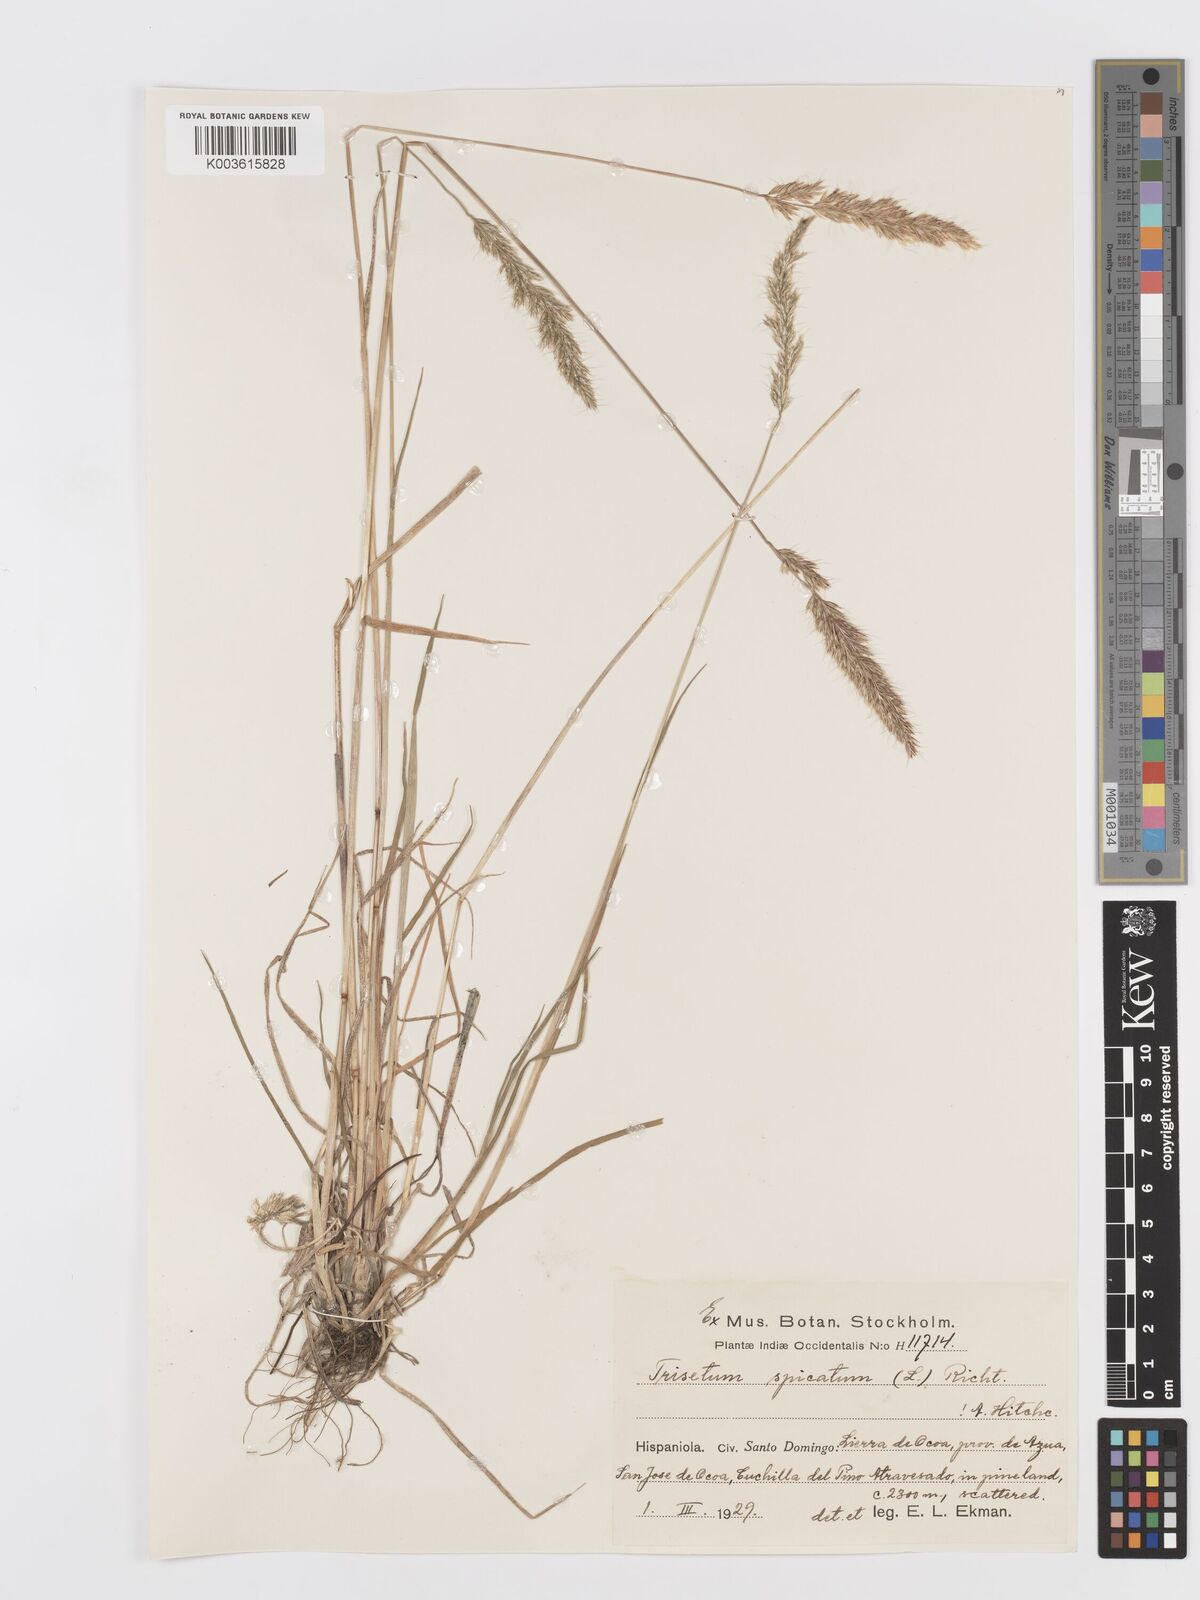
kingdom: Plantae
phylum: Tracheophyta
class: Liliopsida
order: Poales
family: Poaceae
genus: Koeleria
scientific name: Koeleria spicata
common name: Mountain trisetum
